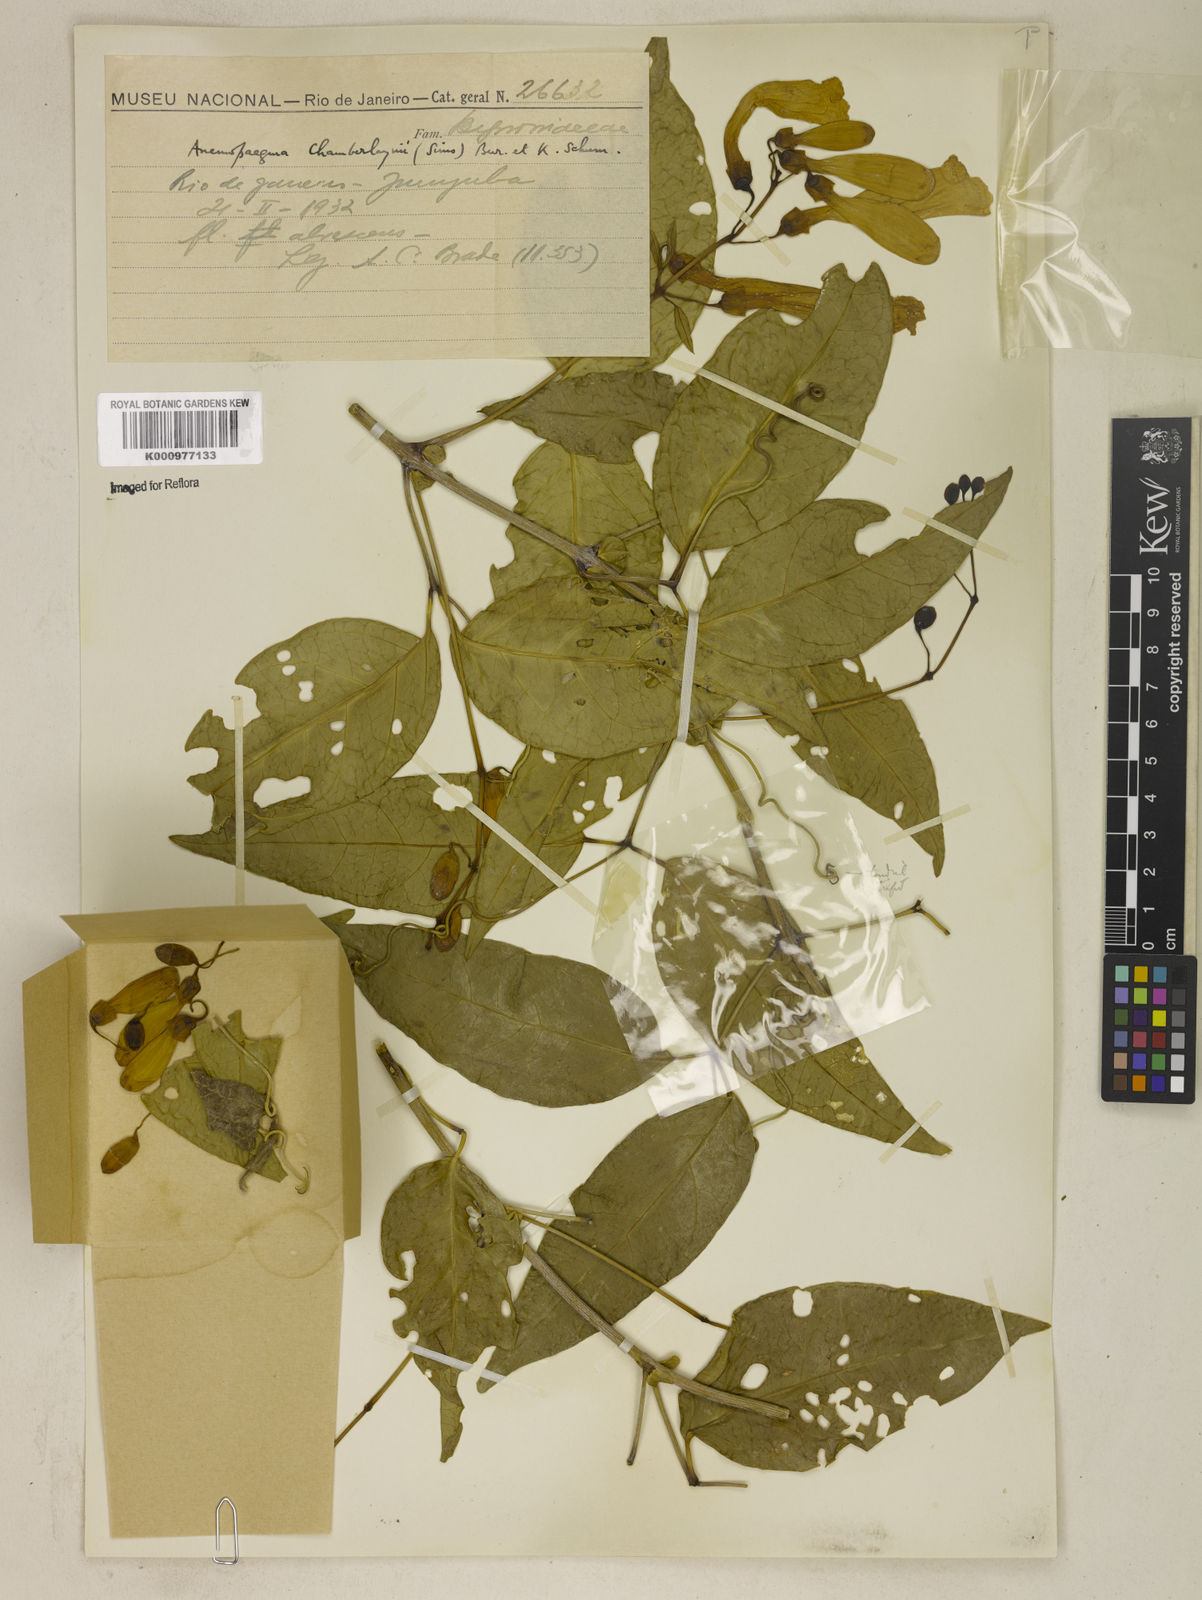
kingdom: Plantae
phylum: Tracheophyta
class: Magnoliopsida
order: Lamiales
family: Bignoniaceae
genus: Anemopaegma
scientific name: Anemopaegma chamberlaynii
